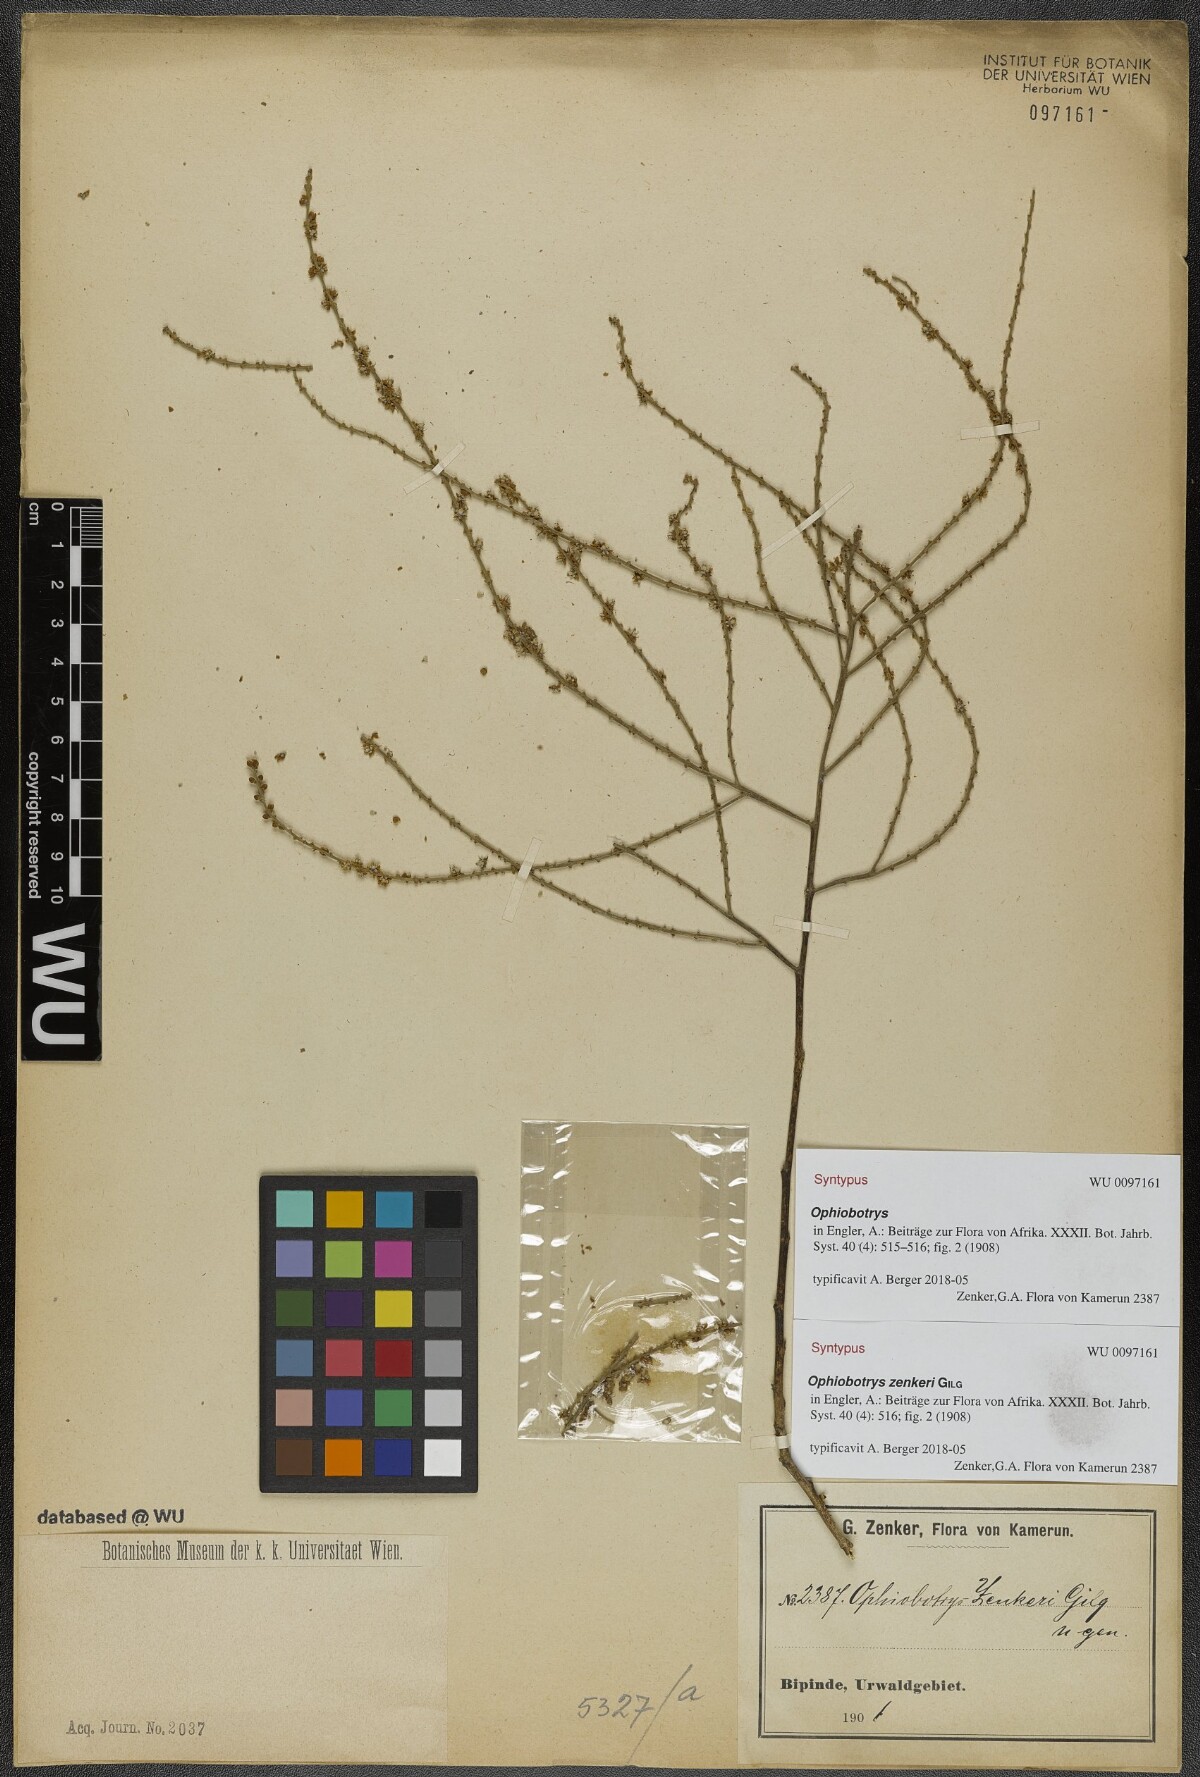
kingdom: Plantae
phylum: Tracheophyta
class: Magnoliopsida
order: Malpighiales
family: Salicaceae
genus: Ophiobotrys
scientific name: Ophiobotrys zenkeri
